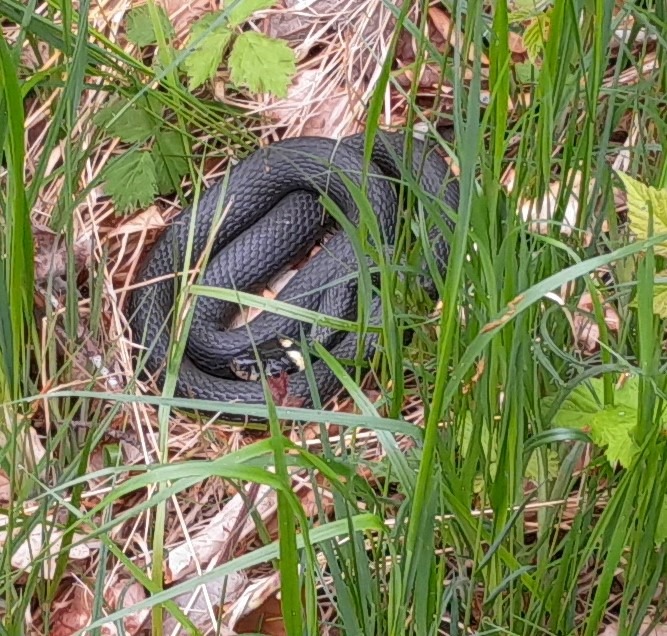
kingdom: Animalia
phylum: Chordata
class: Squamata
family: Colubridae
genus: Natrix
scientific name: Natrix natrix
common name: Snog
